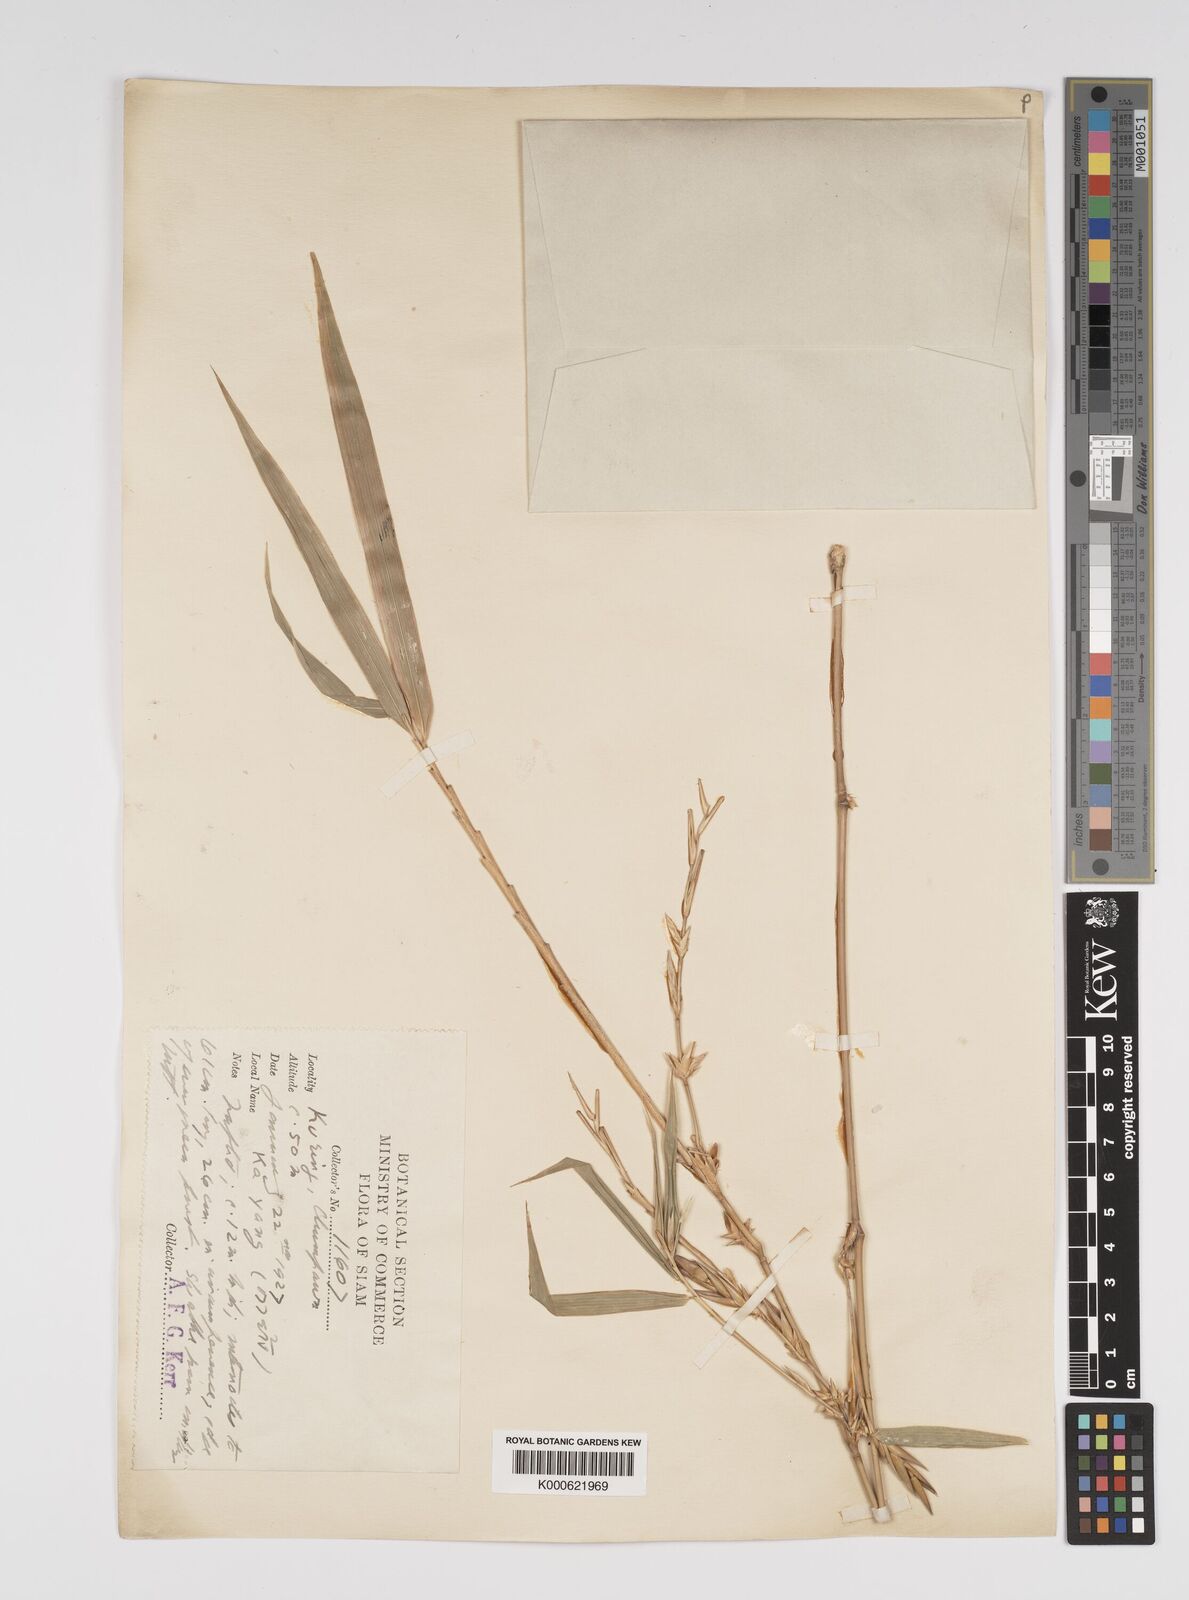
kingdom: Plantae
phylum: Tracheophyta
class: Liliopsida
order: Poales
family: Poaceae
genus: Bambusa
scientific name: Bambusa
